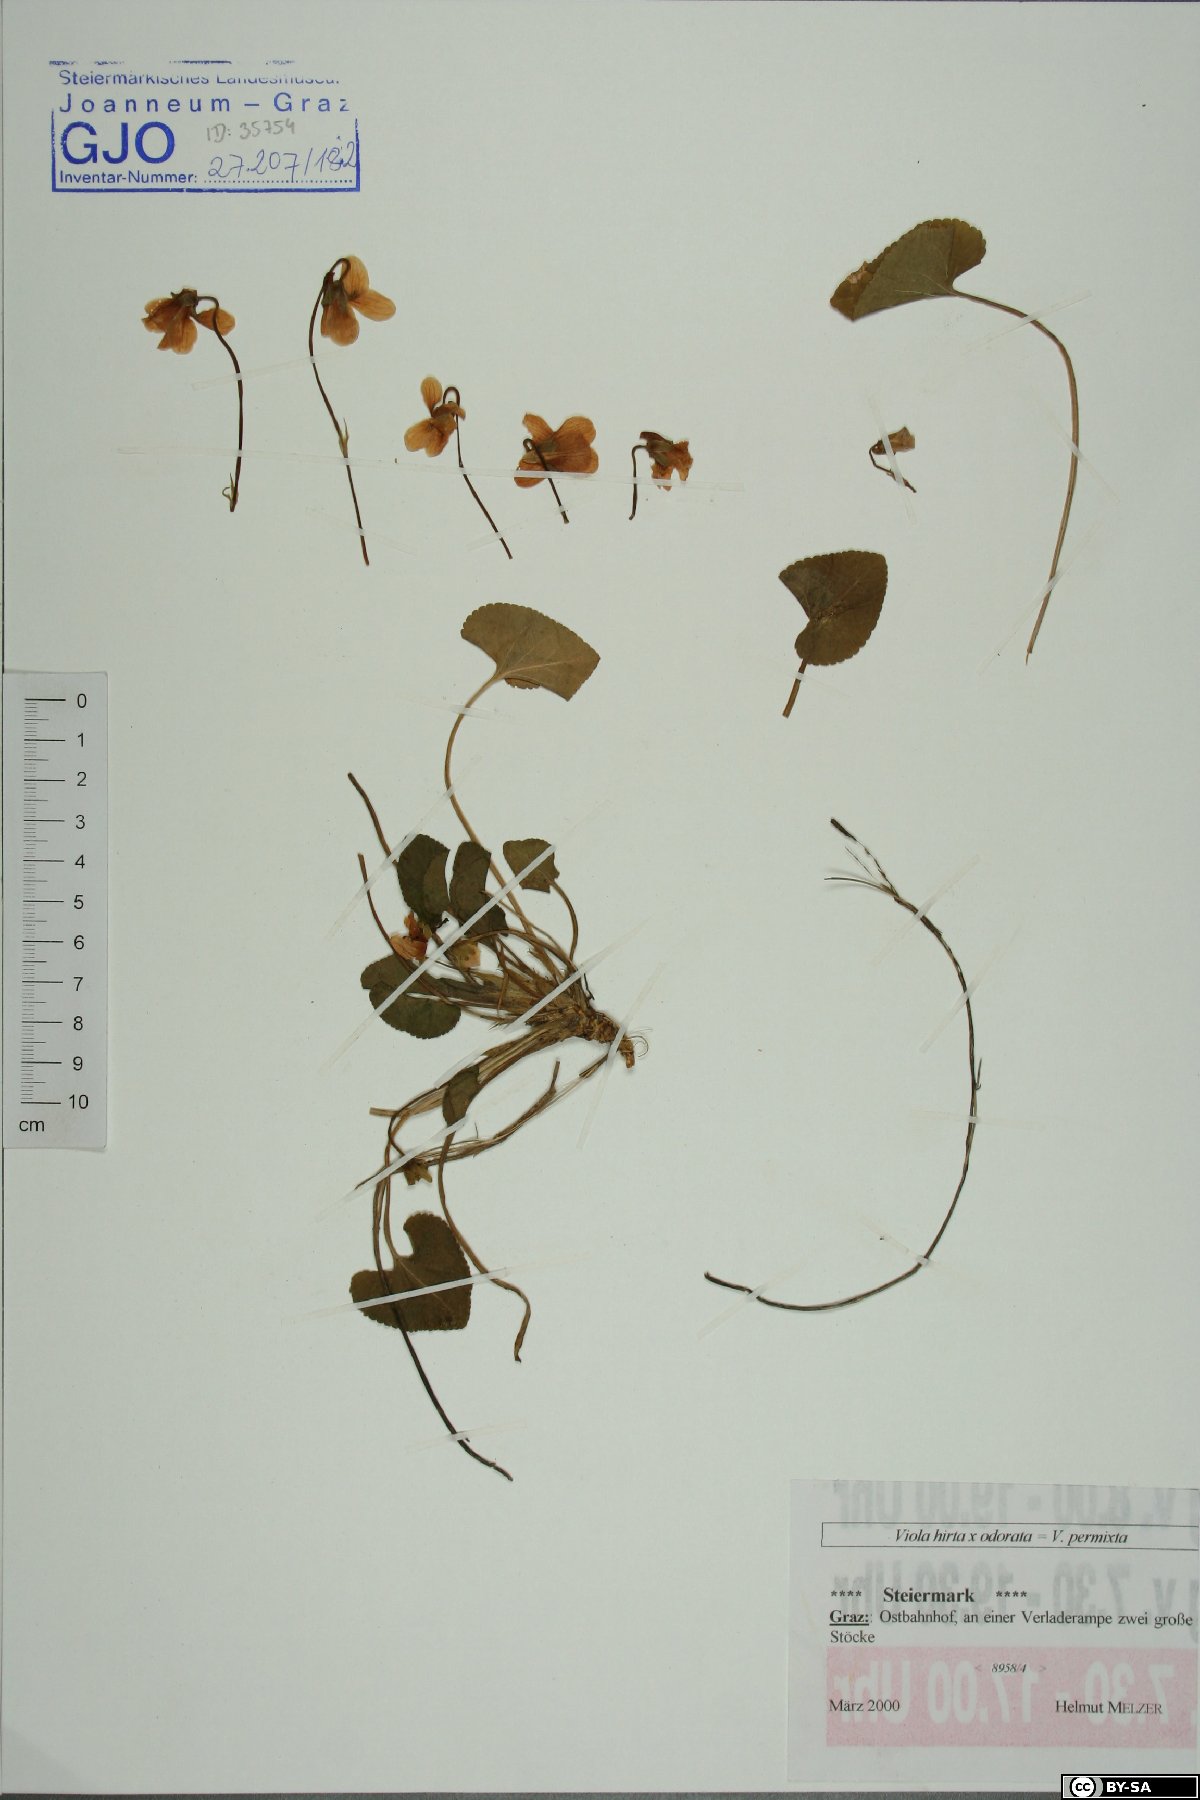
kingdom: Plantae
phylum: Tracheophyta
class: Magnoliopsida
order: Malpighiales
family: Violaceae
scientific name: Violaceae
